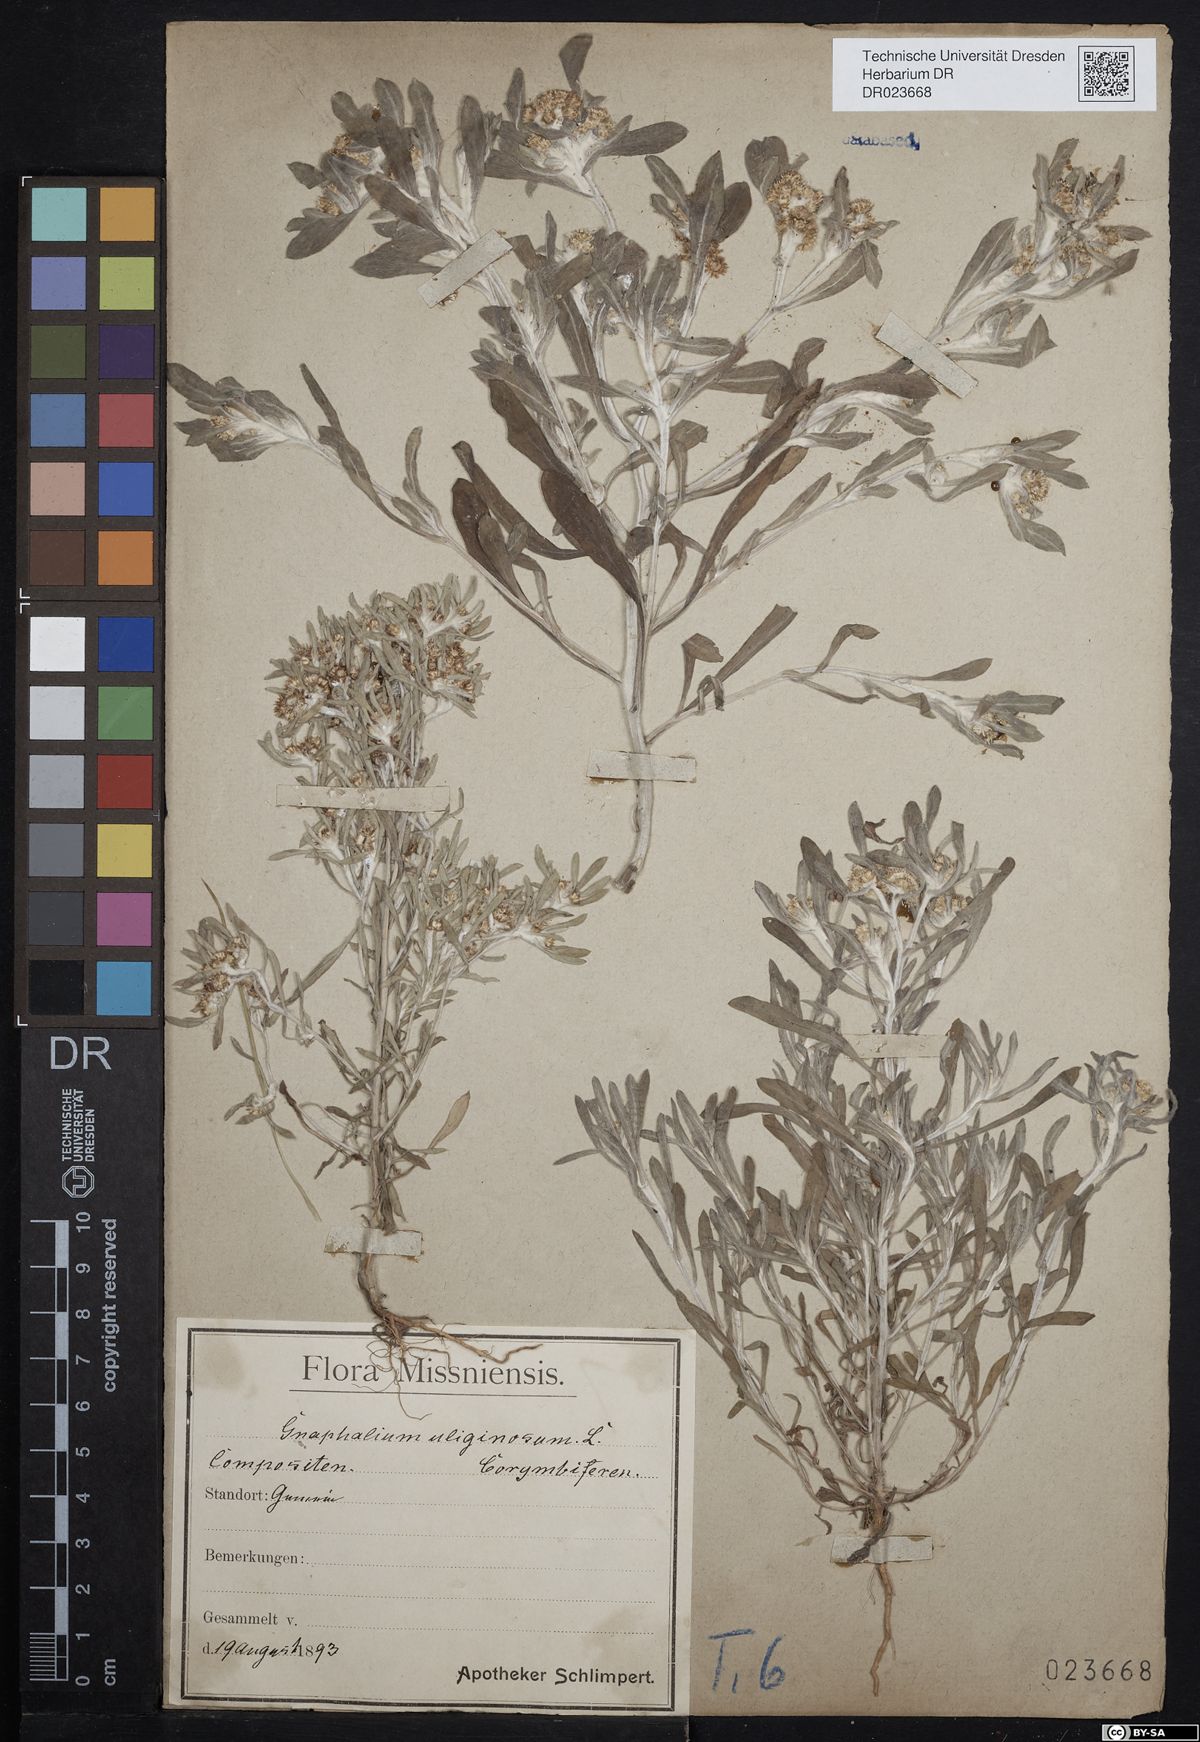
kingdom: Plantae
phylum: Tracheophyta
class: Magnoliopsida
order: Asterales
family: Asteraceae
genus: Gnaphalium
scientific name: Gnaphalium uliginosum
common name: Marsh cudweed
